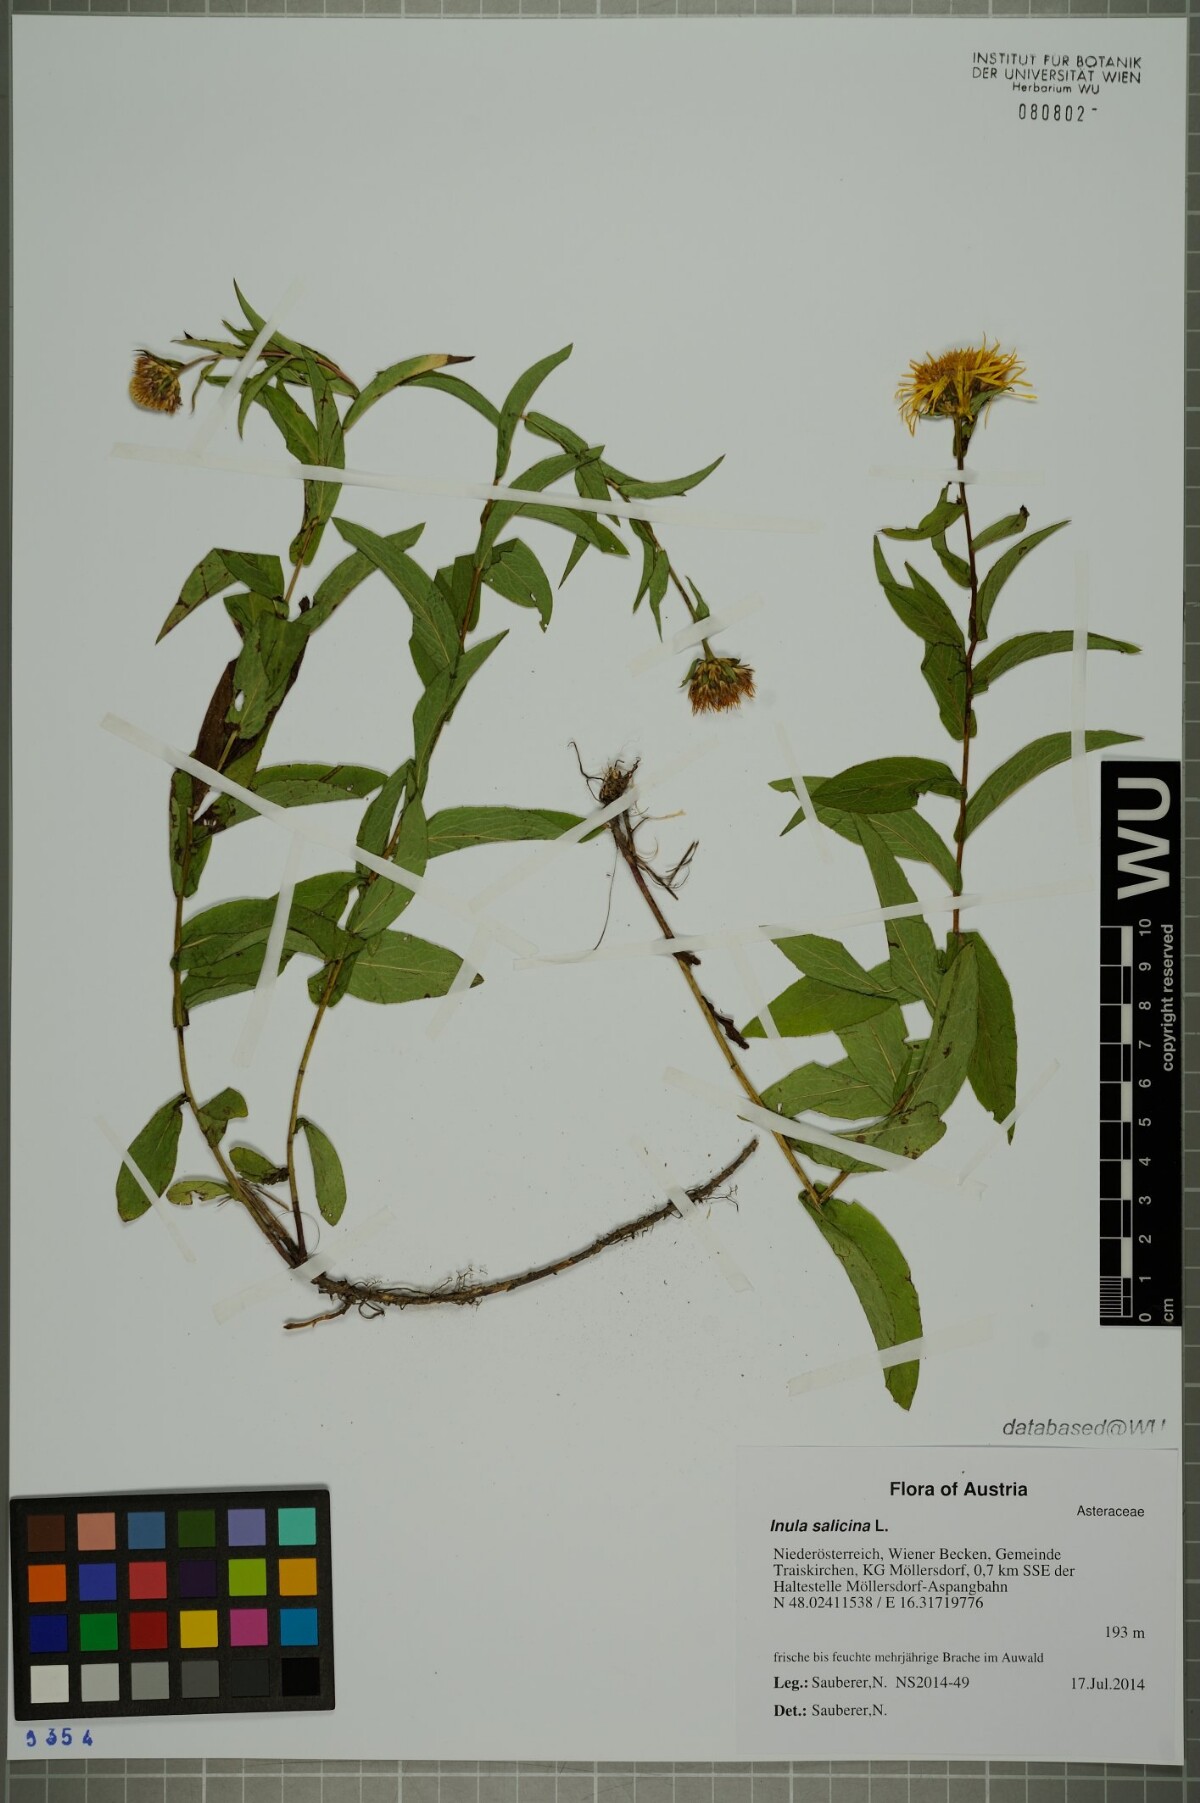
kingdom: Plantae
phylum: Tracheophyta
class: Magnoliopsida
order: Asterales
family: Asteraceae
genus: Pentanema
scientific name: Pentanema salicinum
